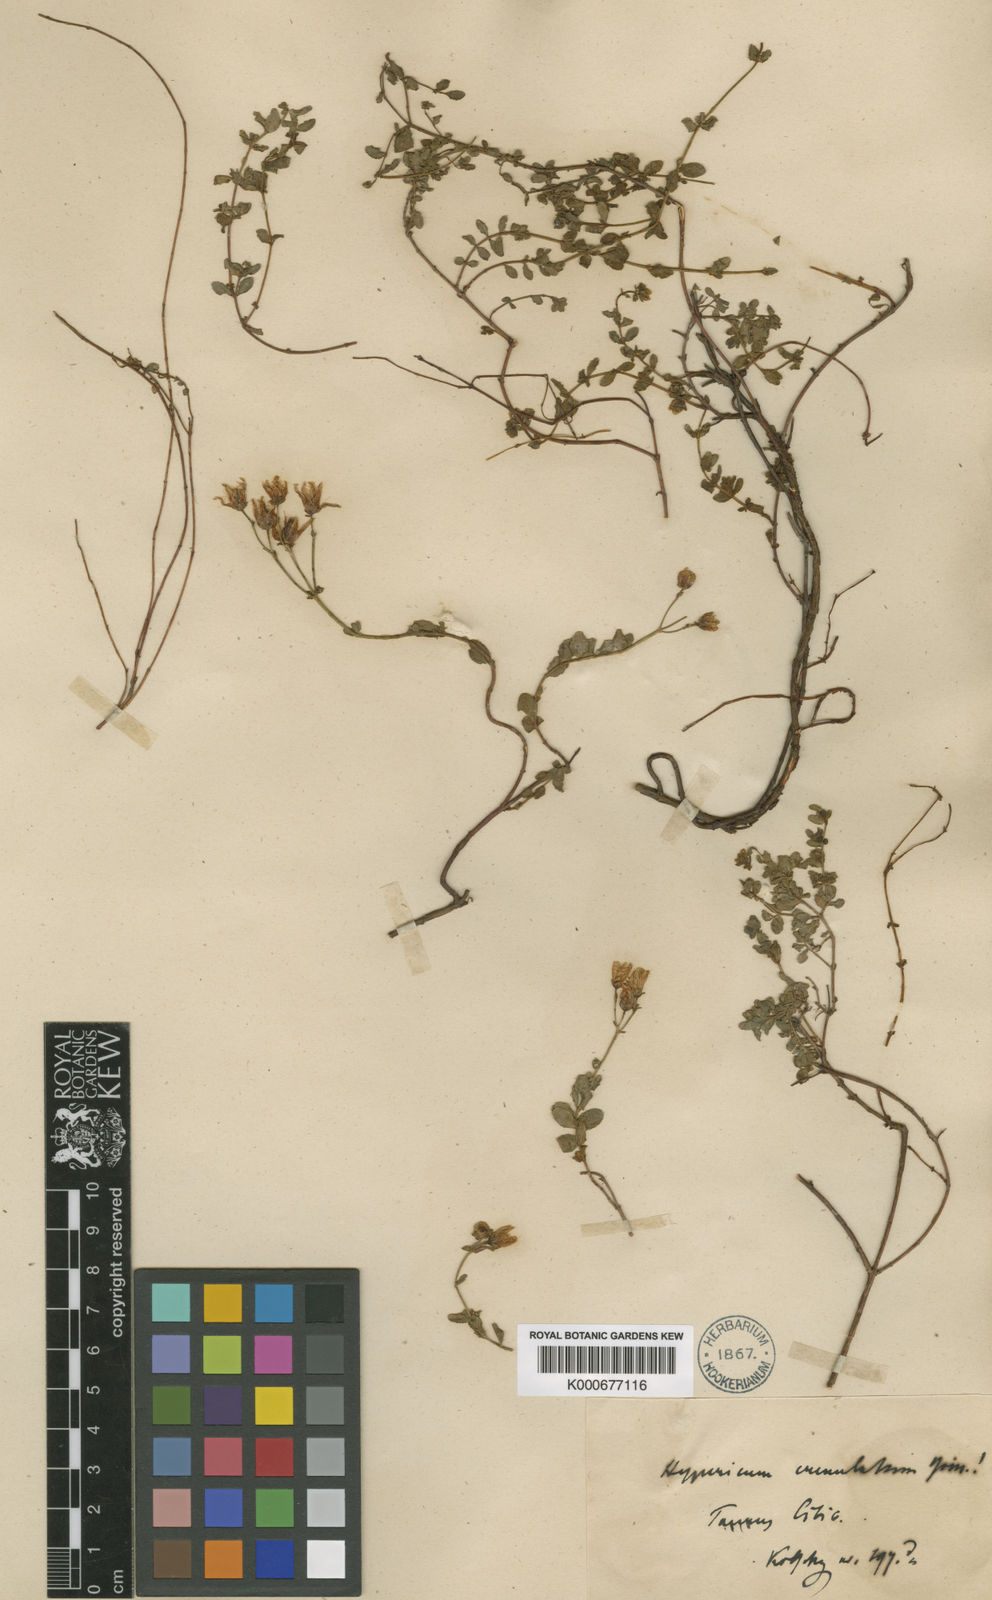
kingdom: Plantae
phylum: Tracheophyta
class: Magnoliopsida
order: Malpighiales
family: Hypericaceae
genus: Hypericum
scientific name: Hypericum
